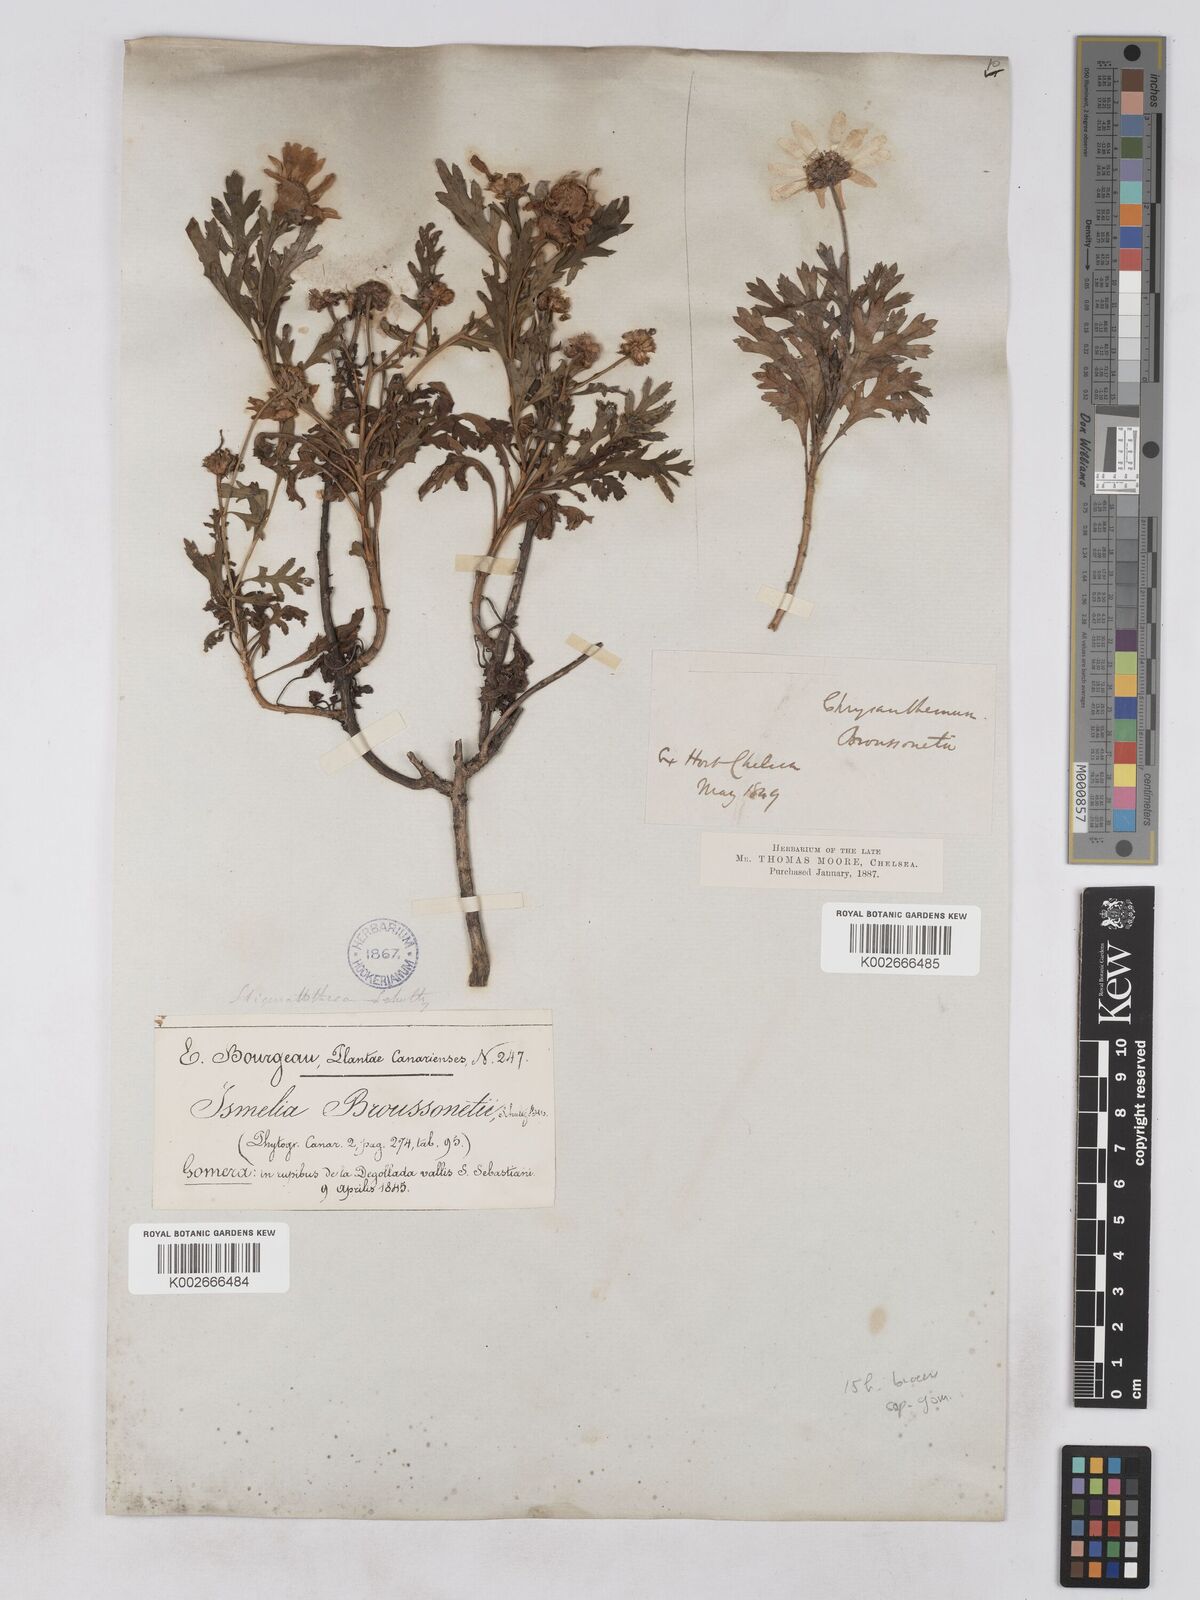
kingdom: Plantae
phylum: Tracheophyta
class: Magnoliopsida
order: Asterales
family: Asteraceae
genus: Argyranthemum
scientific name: Argyranthemum callichrysum
